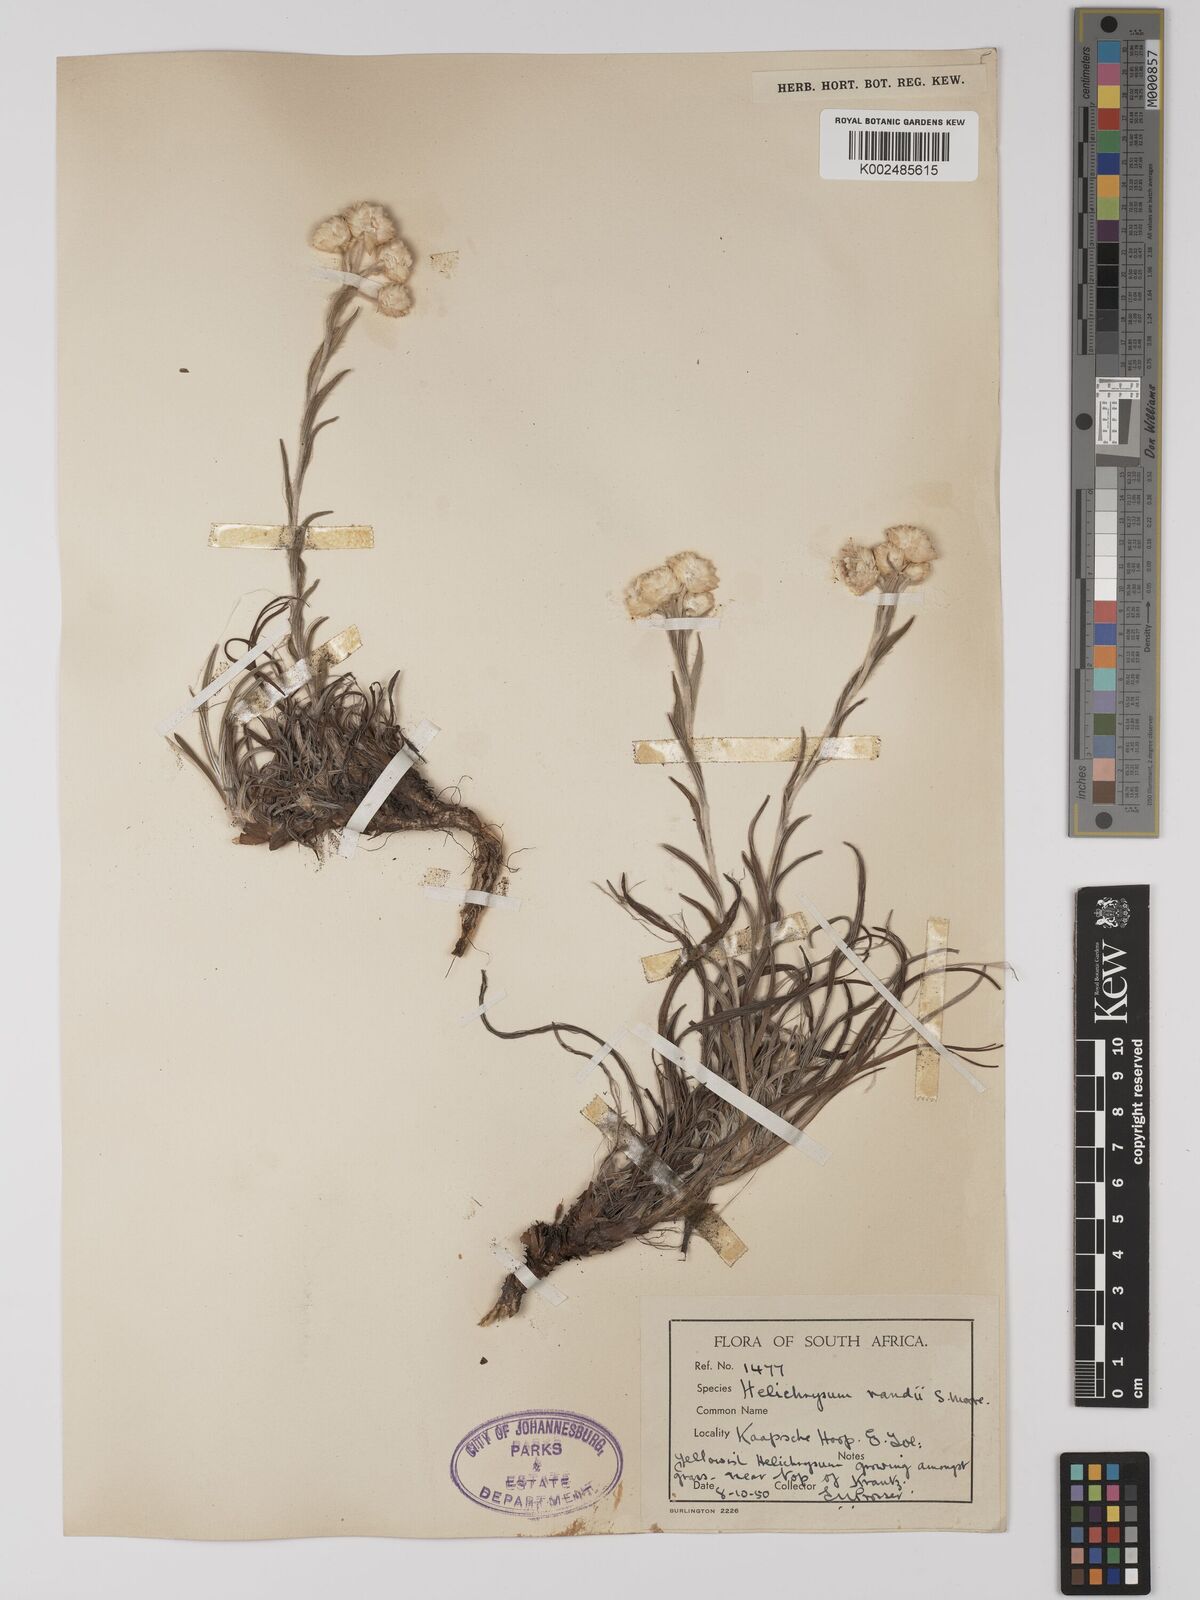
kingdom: Plantae
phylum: Tracheophyta
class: Magnoliopsida
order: Asterales
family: Asteraceae
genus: Helichrysum
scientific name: Helichrysum chionosphaerum
